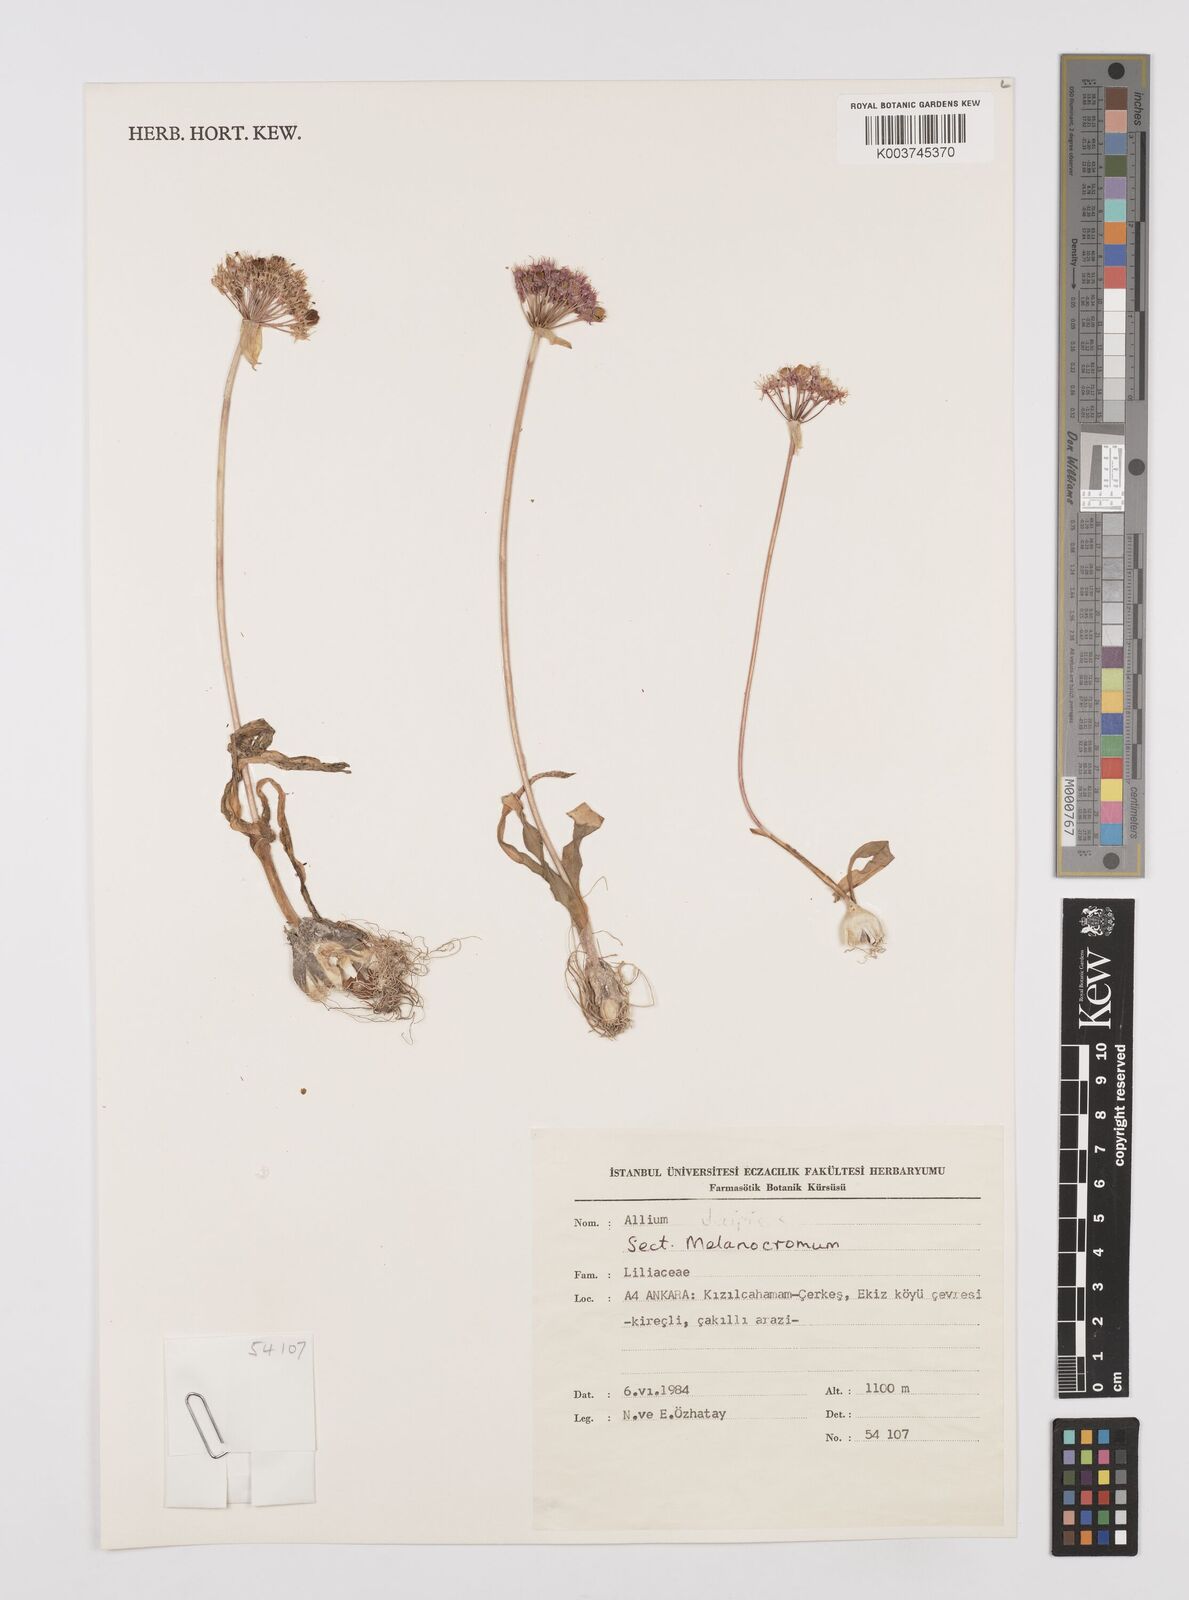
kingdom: Plantae
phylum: Tracheophyta
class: Liliopsida
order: Asparagales
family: Amaryllidaceae
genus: Allium
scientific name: Allium
